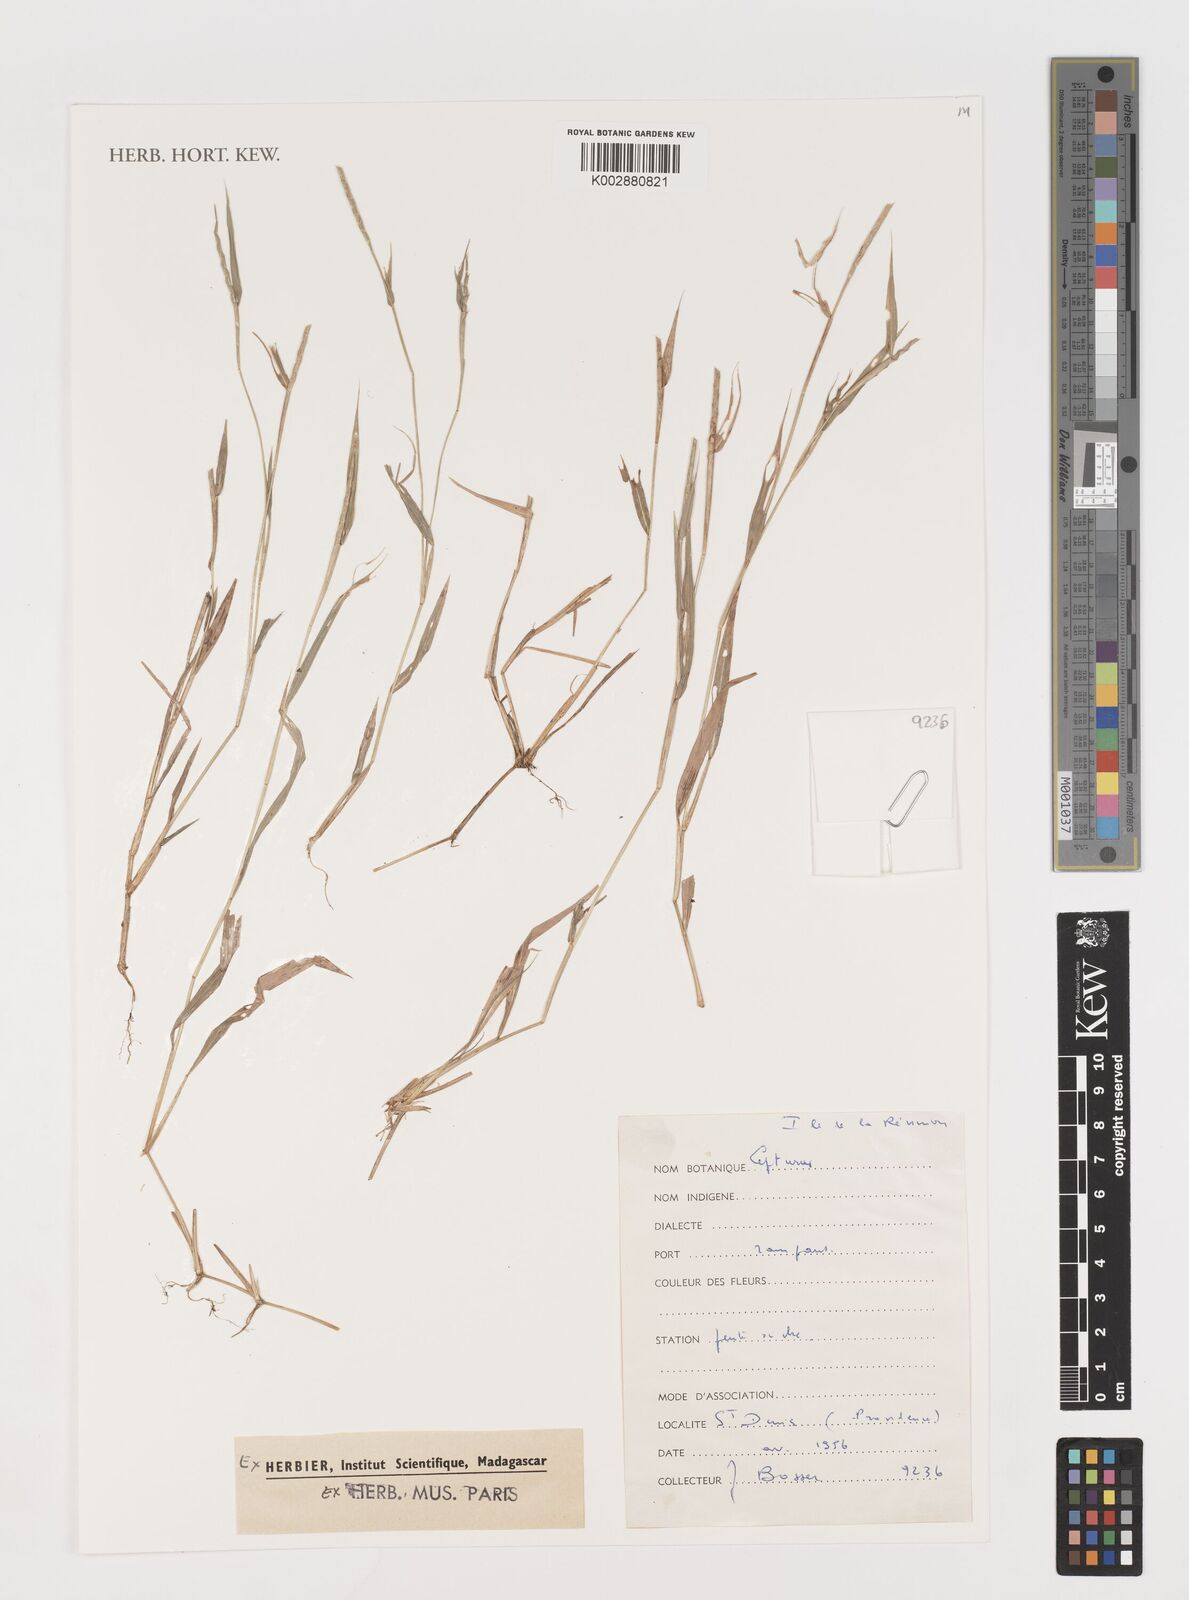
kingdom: Plantae
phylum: Tracheophyta
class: Liliopsida
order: Poales
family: Poaceae
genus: Lepturus
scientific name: Lepturus
